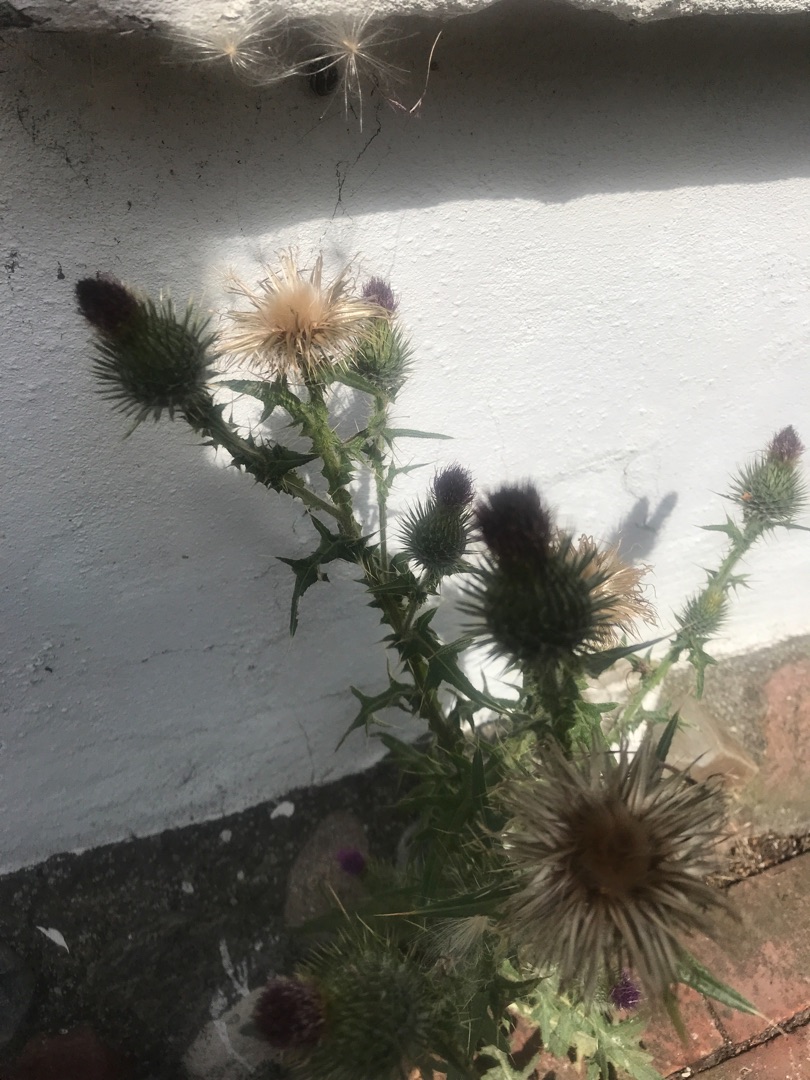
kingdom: Plantae
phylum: Tracheophyta
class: Magnoliopsida
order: Asterales
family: Asteraceae
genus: Cirsium
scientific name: Cirsium vulgare
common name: Horse-tidsel
